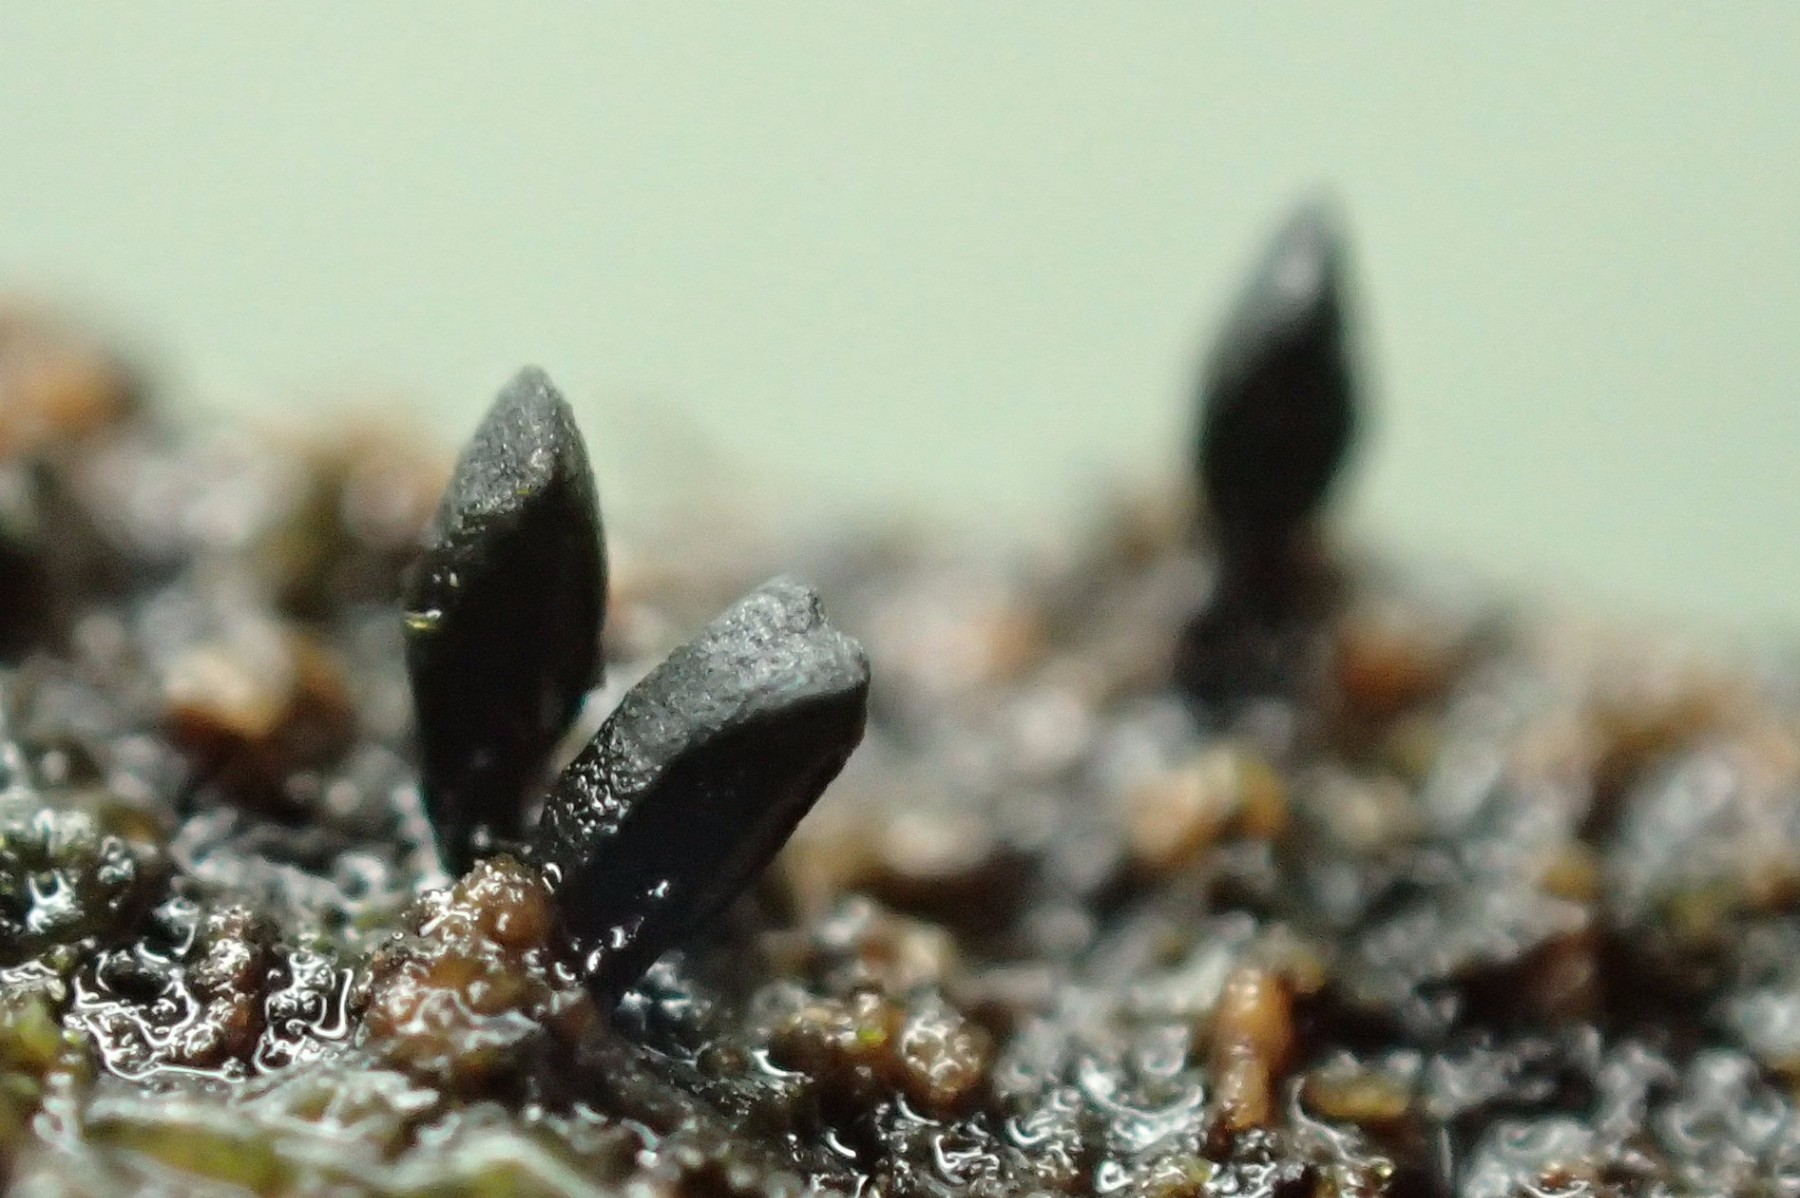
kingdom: Fungi
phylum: Ascomycota
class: Eurotiomycetes
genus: Glyphium
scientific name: Glyphium elatum
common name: kuløkse
